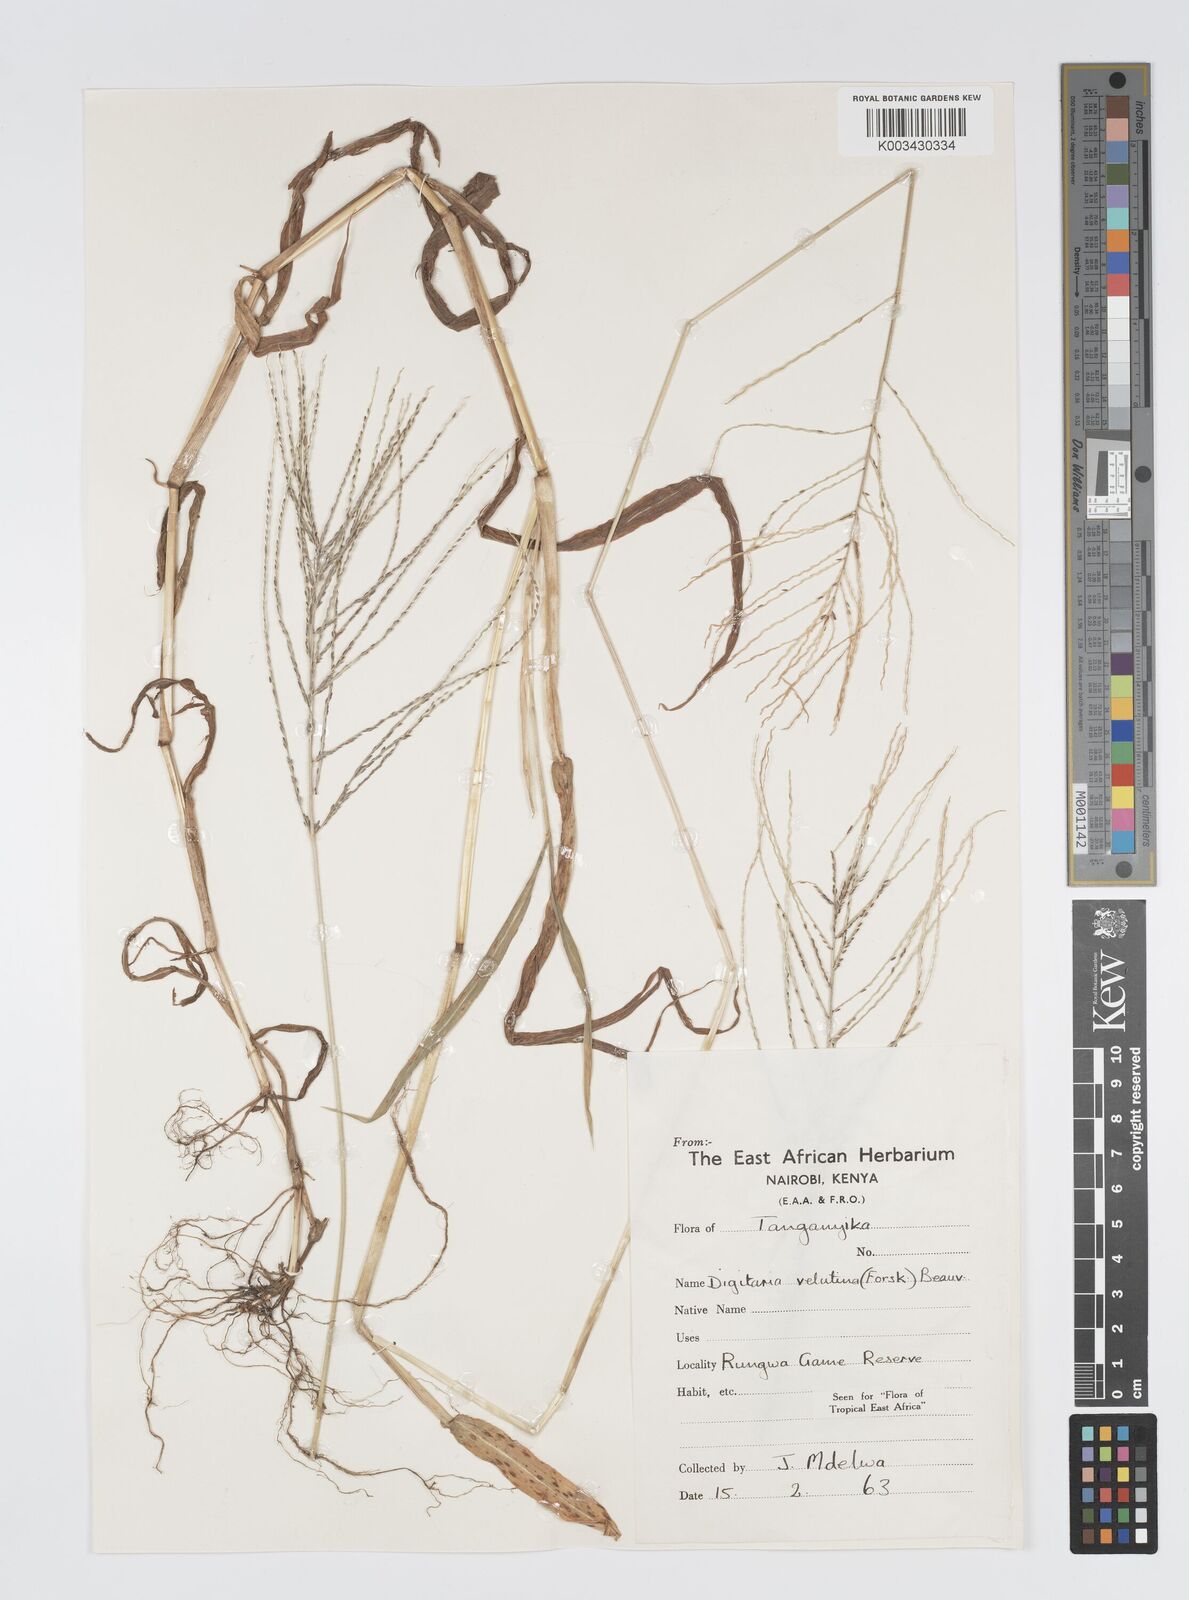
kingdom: Plantae
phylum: Tracheophyta
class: Liliopsida
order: Poales
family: Poaceae
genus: Digitaria
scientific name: Digitaria velutina
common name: Long-plume finger grass
